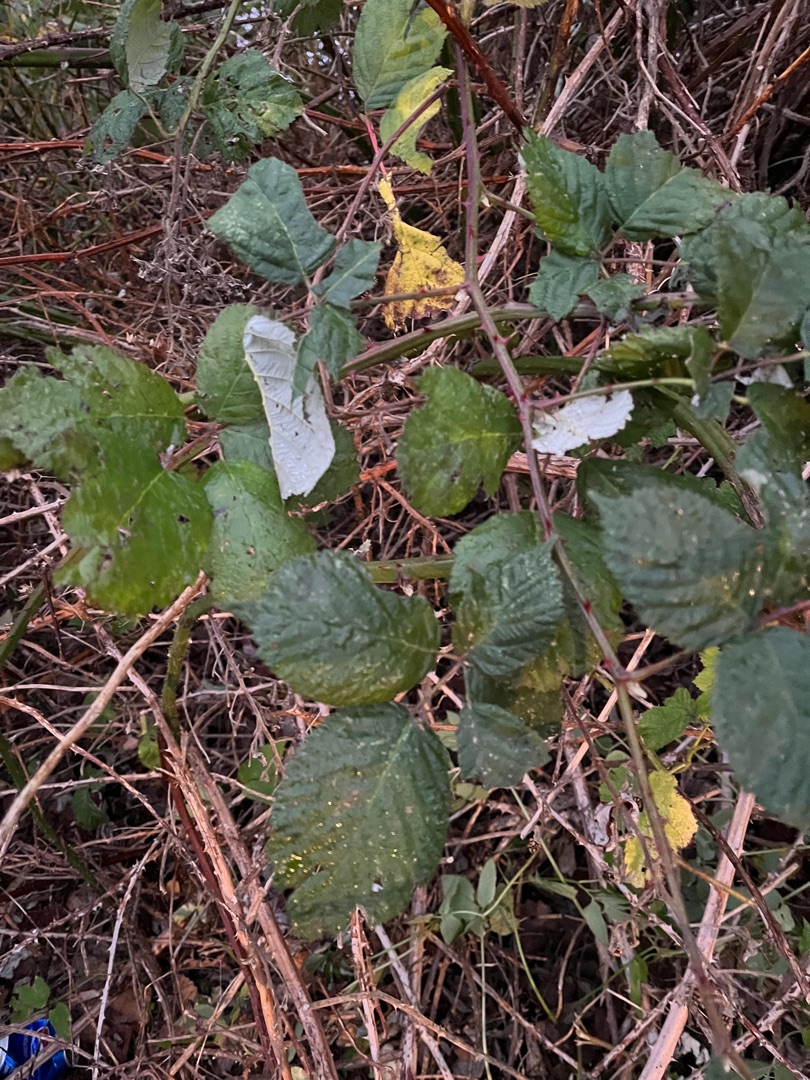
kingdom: Plantae
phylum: Tracheophyta
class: Magnoliopsida
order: Rosales
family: Rosaceae
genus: Rubus
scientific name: Rubus armeniacus
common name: Armensk brombær
